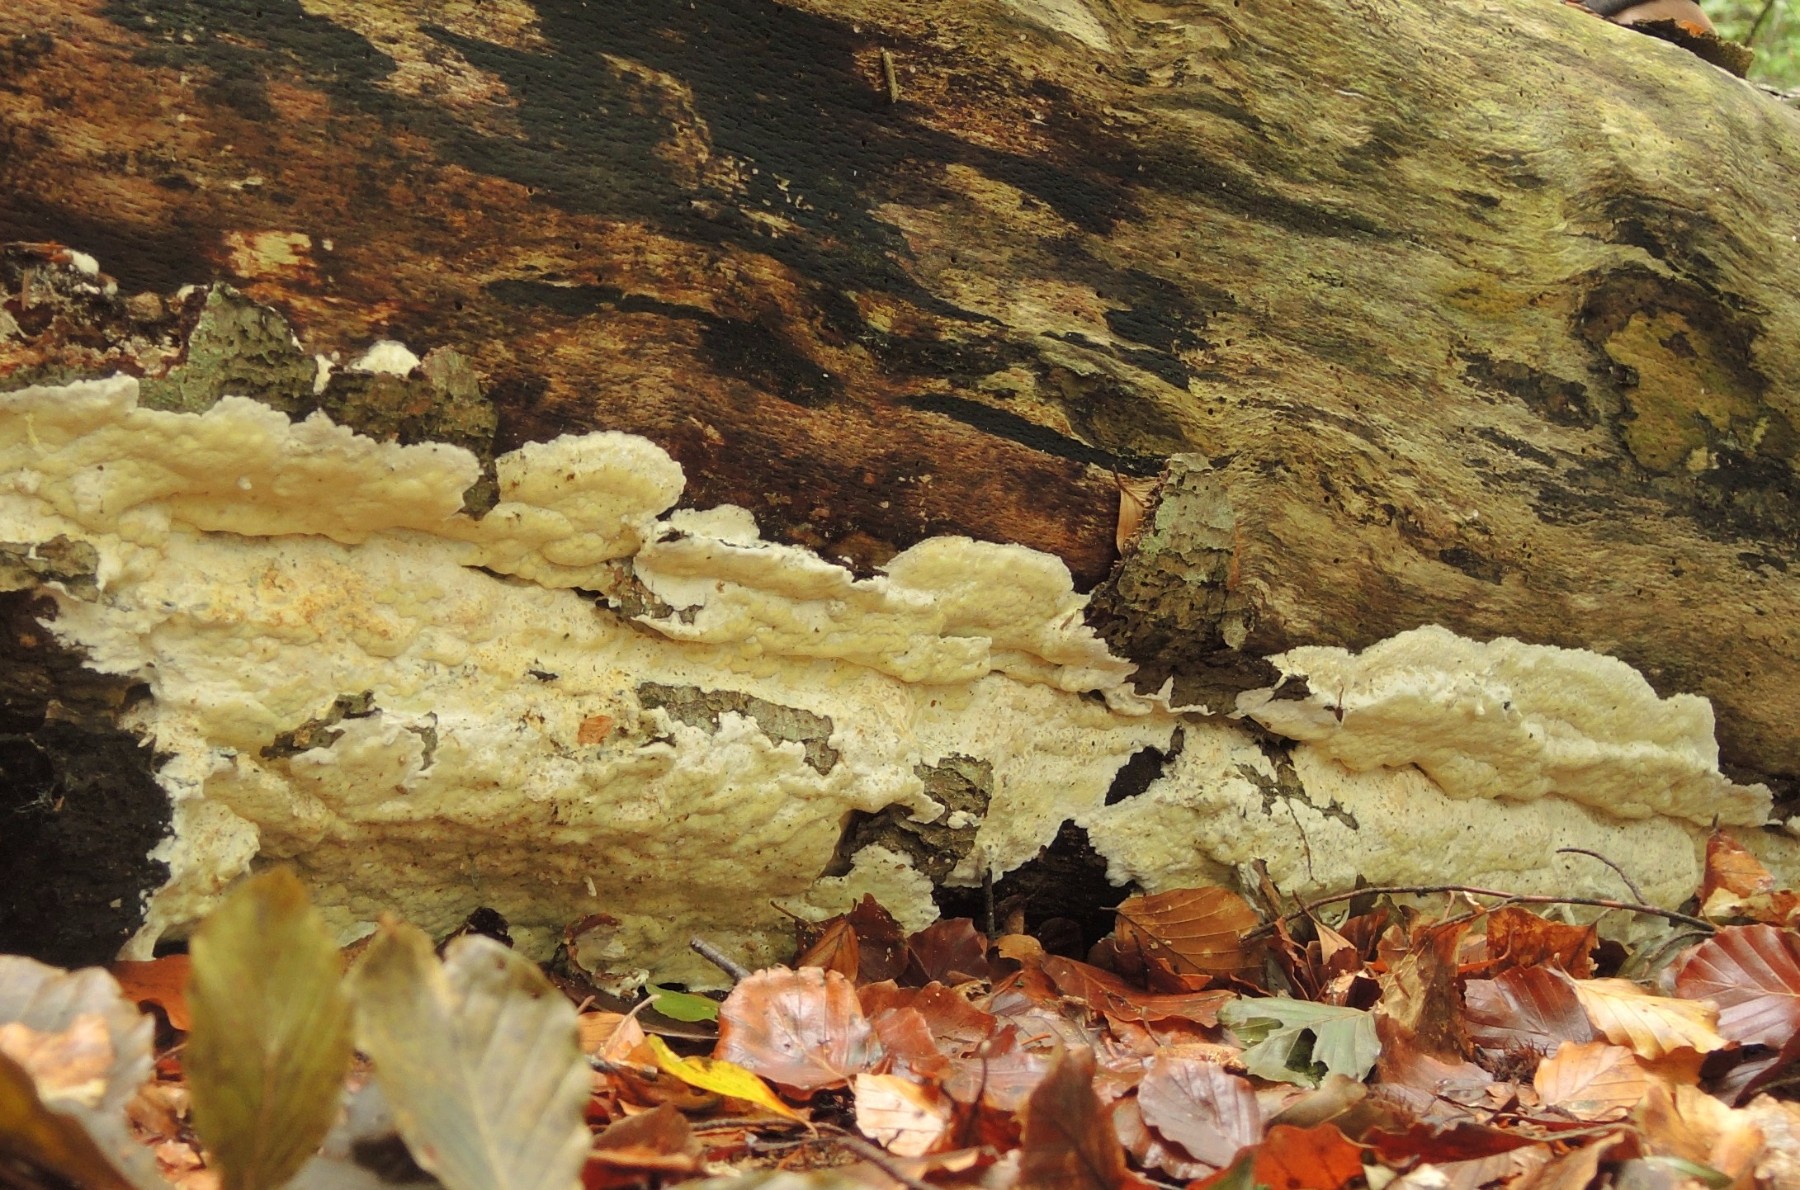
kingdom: Fungi
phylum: Basidiomycota
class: Agaricomycetes
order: Polyporales
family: Irpicaceae
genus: Gloeoporus
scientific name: Gloeoporus pannocinctus
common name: grøngul foldporesvamp
